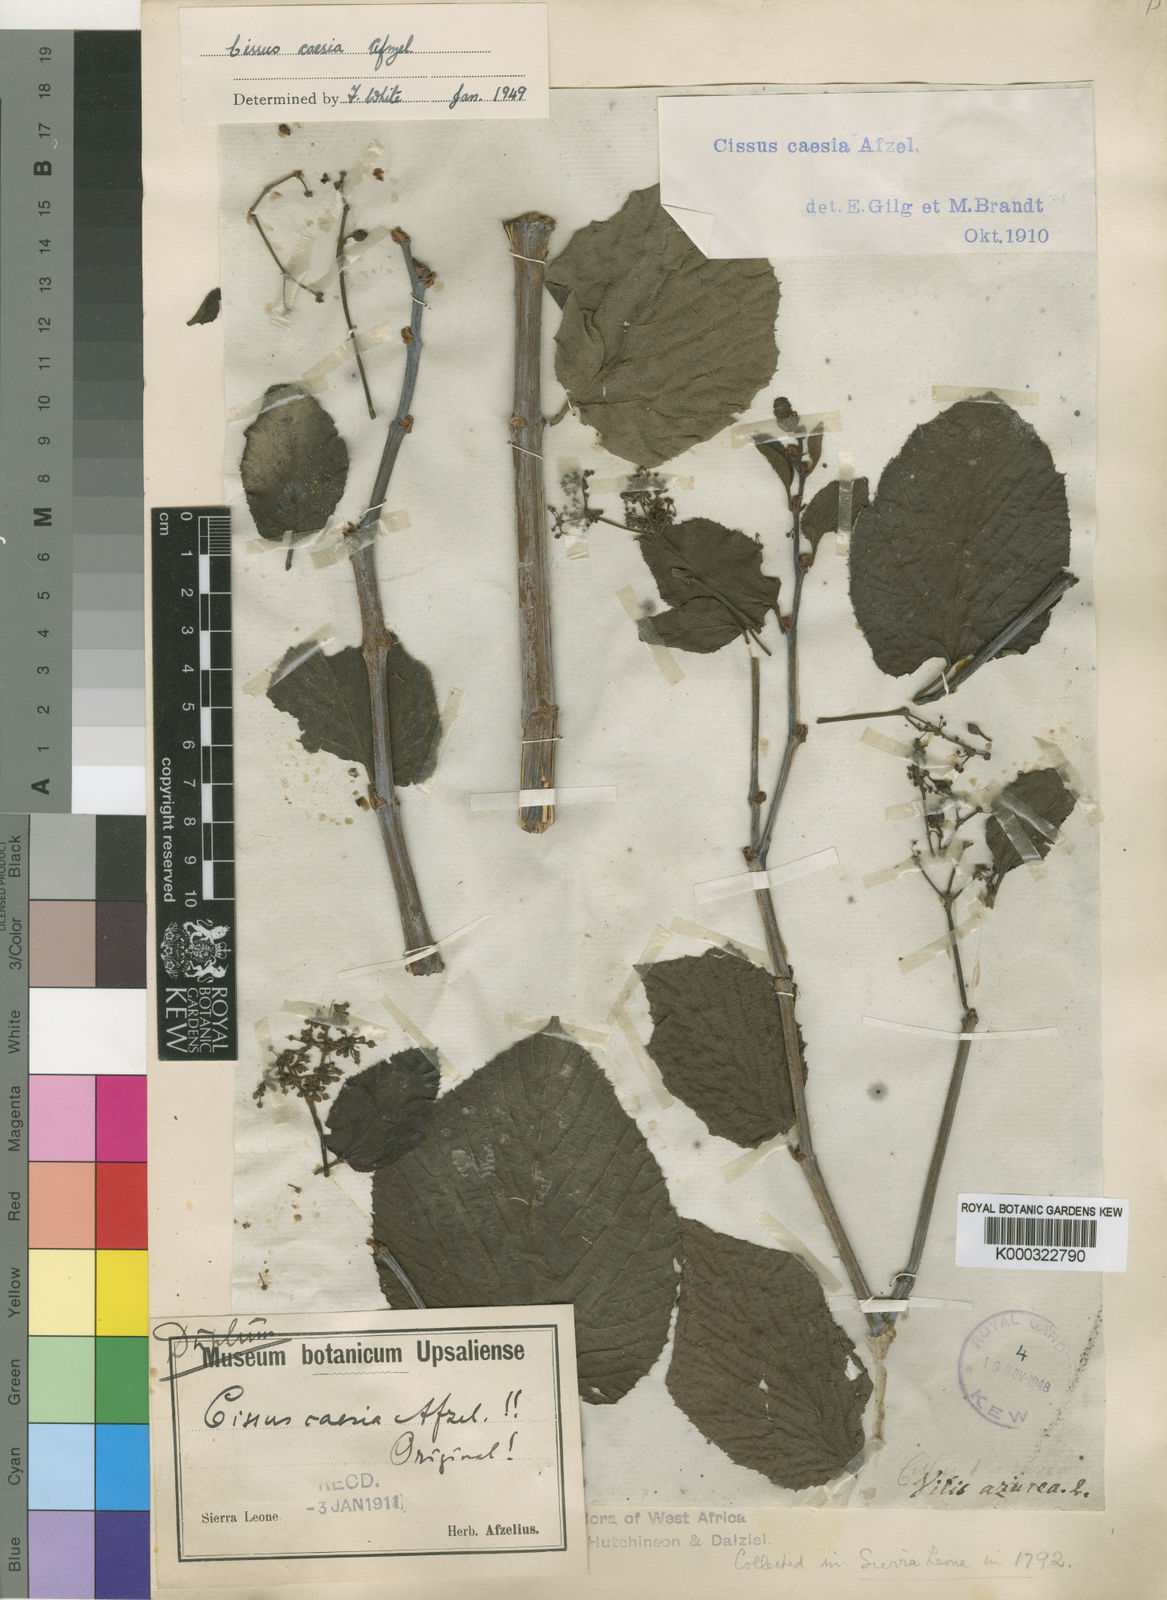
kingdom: Plantae
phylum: Tracheophyta
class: Magnoliopsida
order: Vitales
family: Vitaceae
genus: Cissus
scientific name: Cissus caesia
